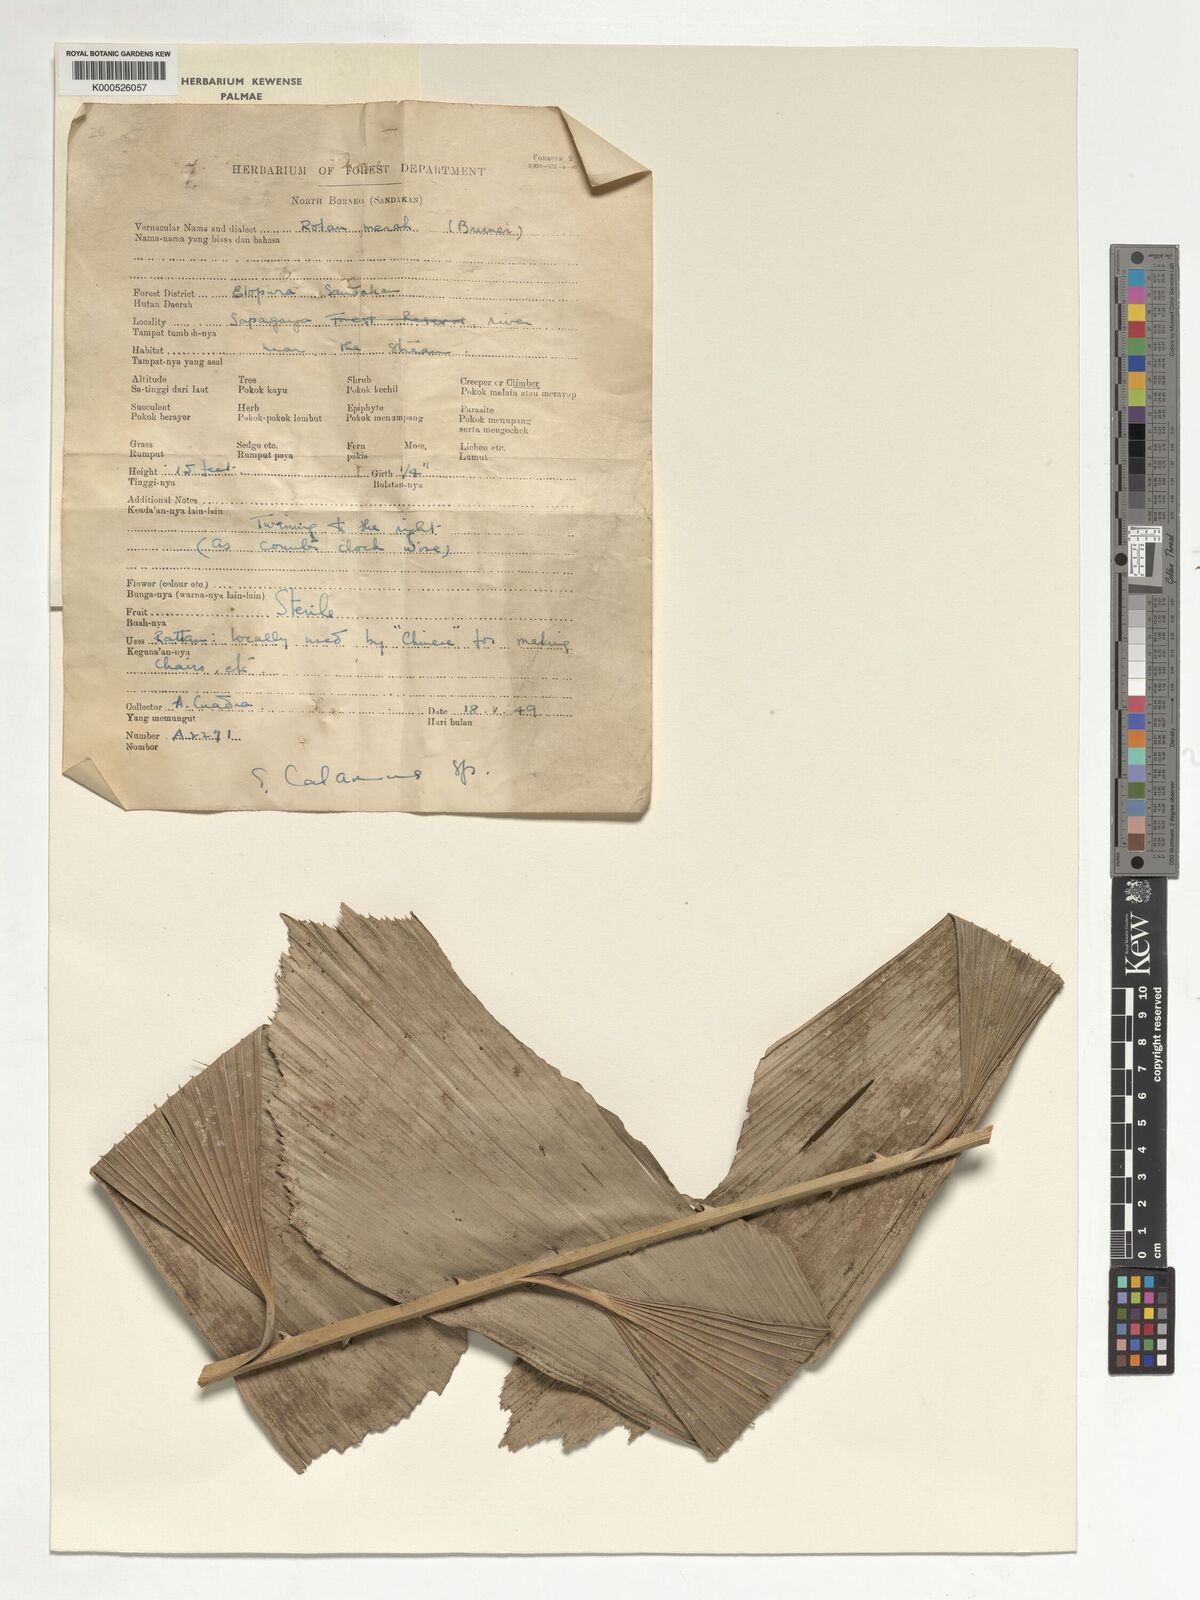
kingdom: Plantae
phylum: Tracheophyta
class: Liliopsida
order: Arecales
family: Arecaceae
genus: Korthalsia
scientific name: Korthalsia ferox
